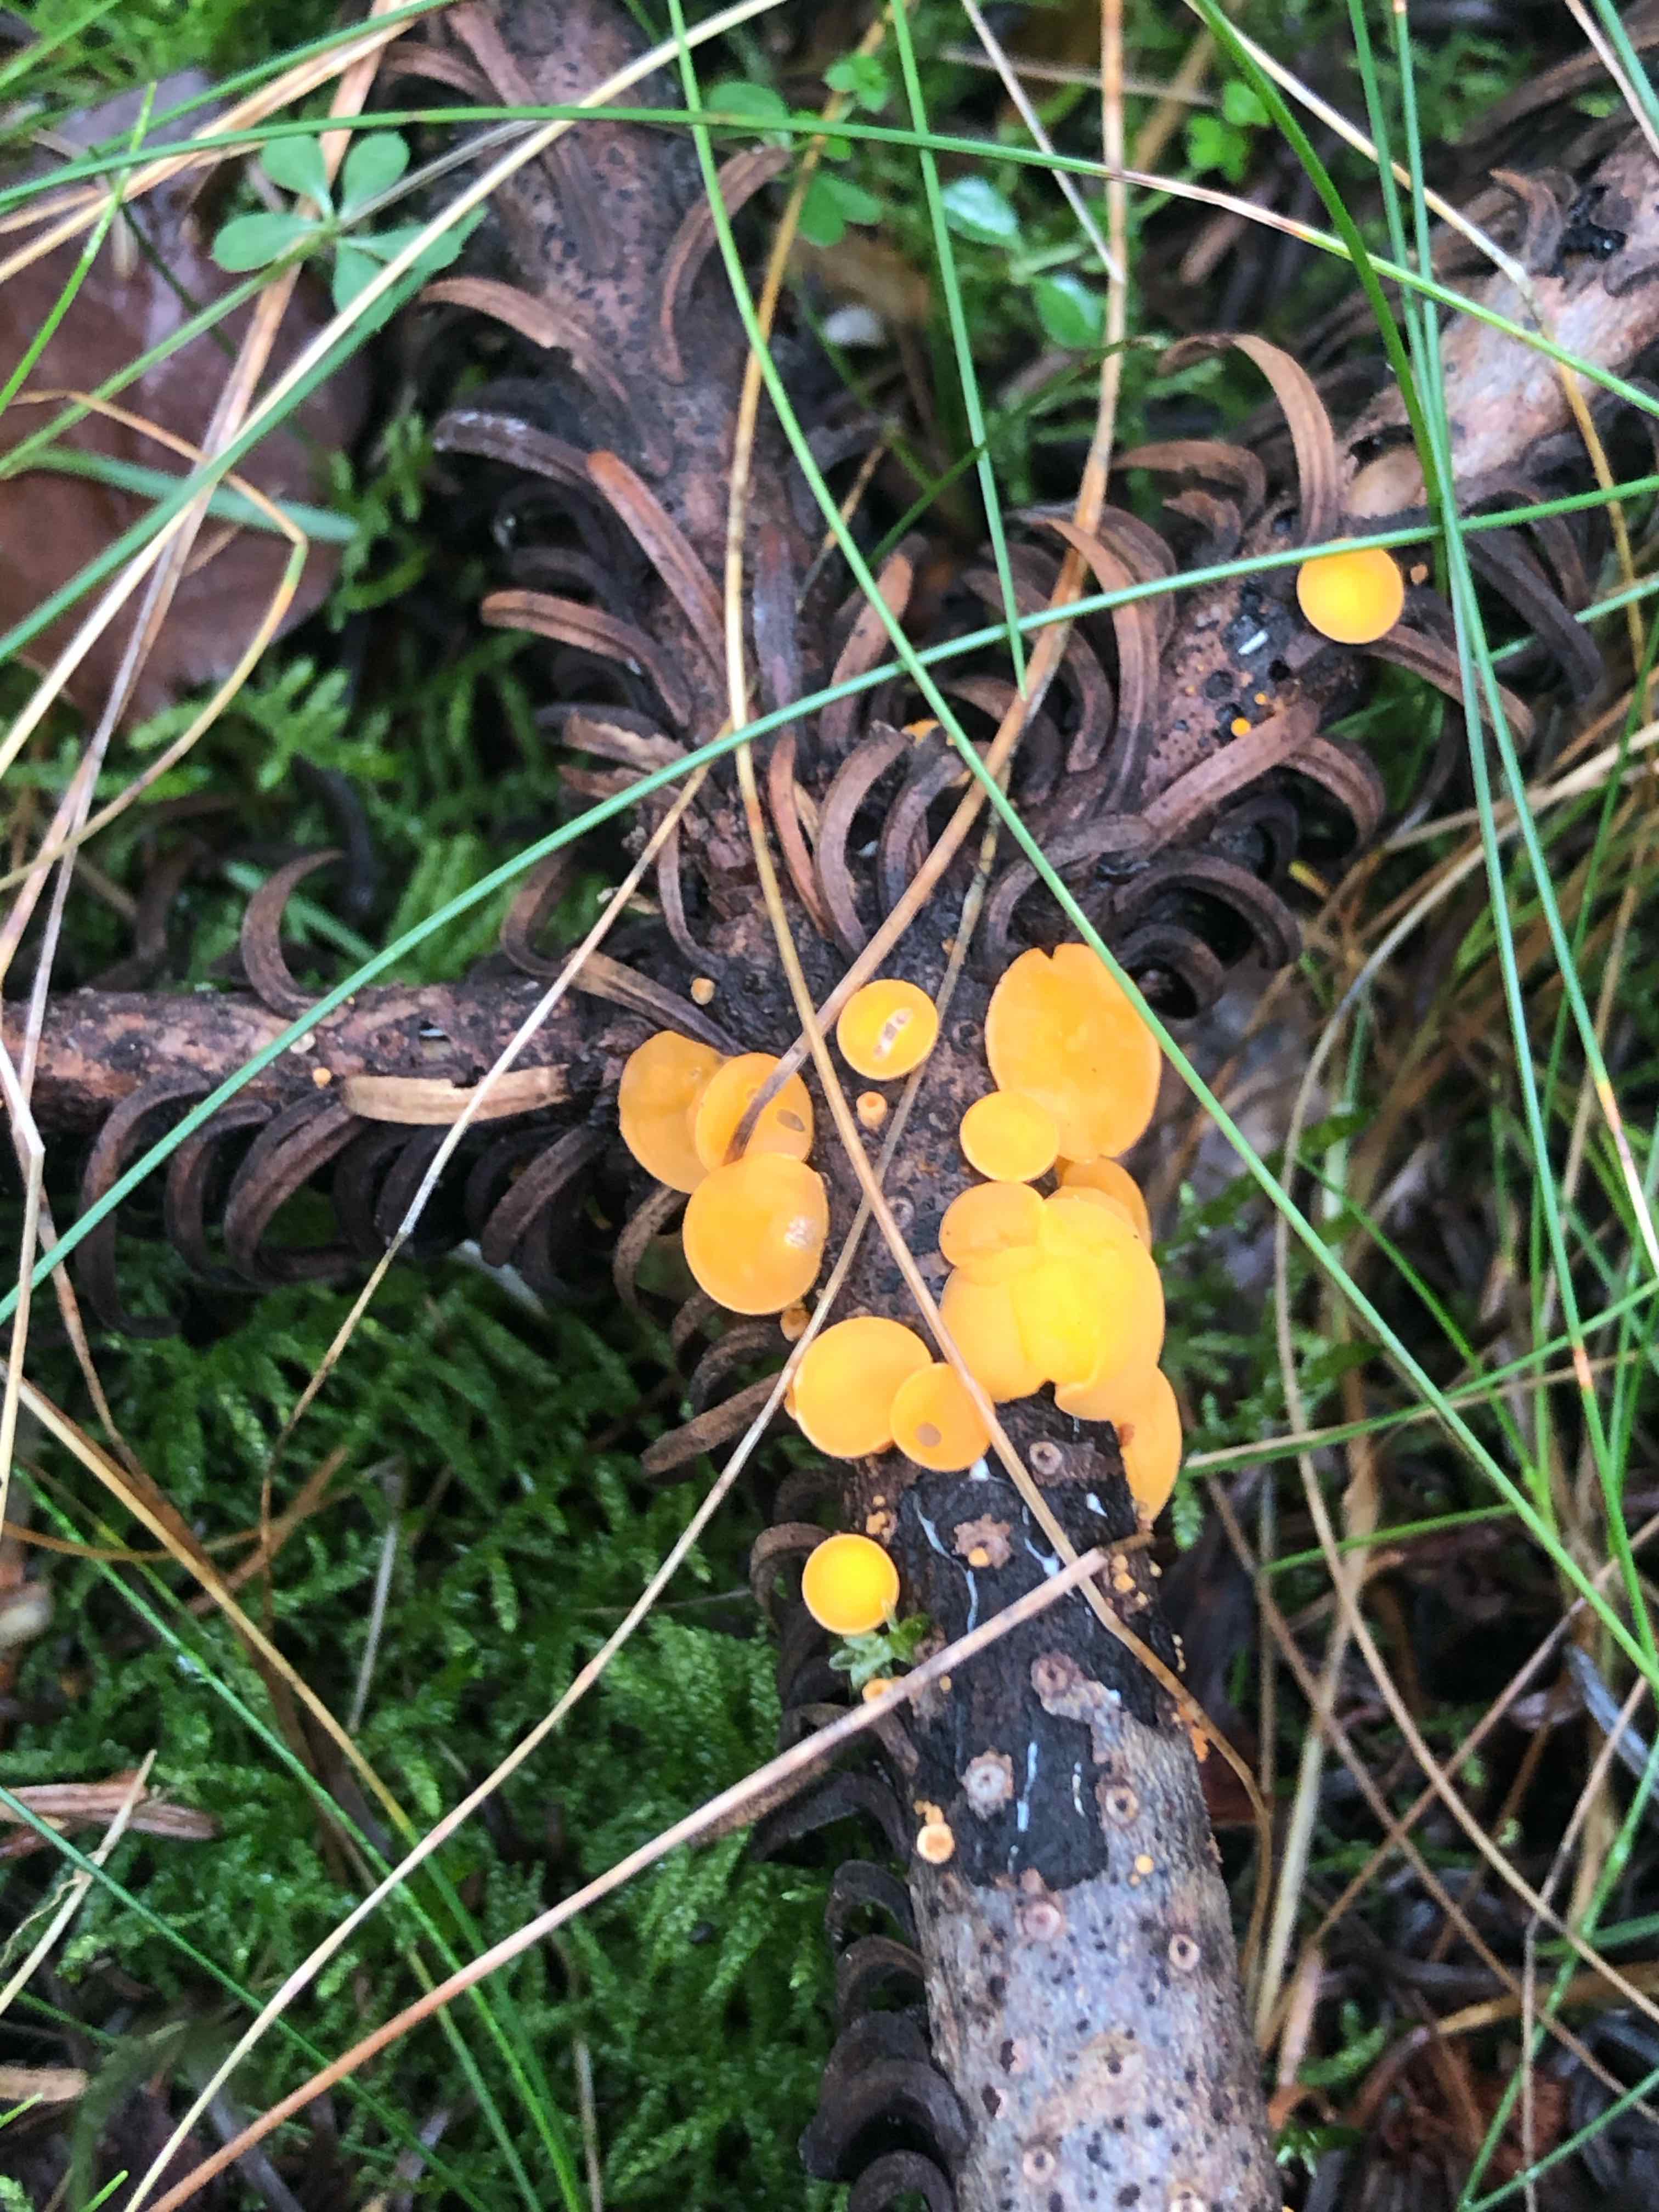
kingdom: Fungi
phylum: Ascomycota
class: Pezizomycetes
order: Pezizales
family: Sarcoscyphaceae
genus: Pithya
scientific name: Pithya vulgaris
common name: stor dukatbæger
